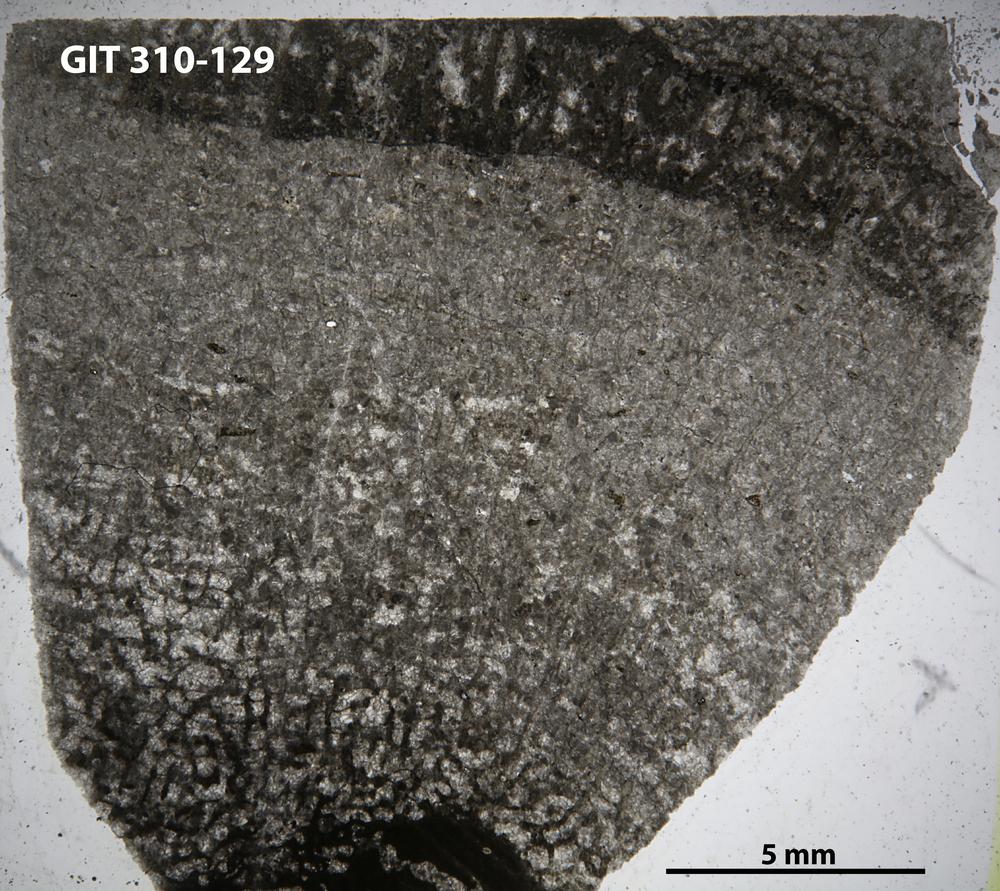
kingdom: Animalia
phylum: Porifera
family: Stylostromatidae
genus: Pachystylostroma
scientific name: Pachystylostroma
